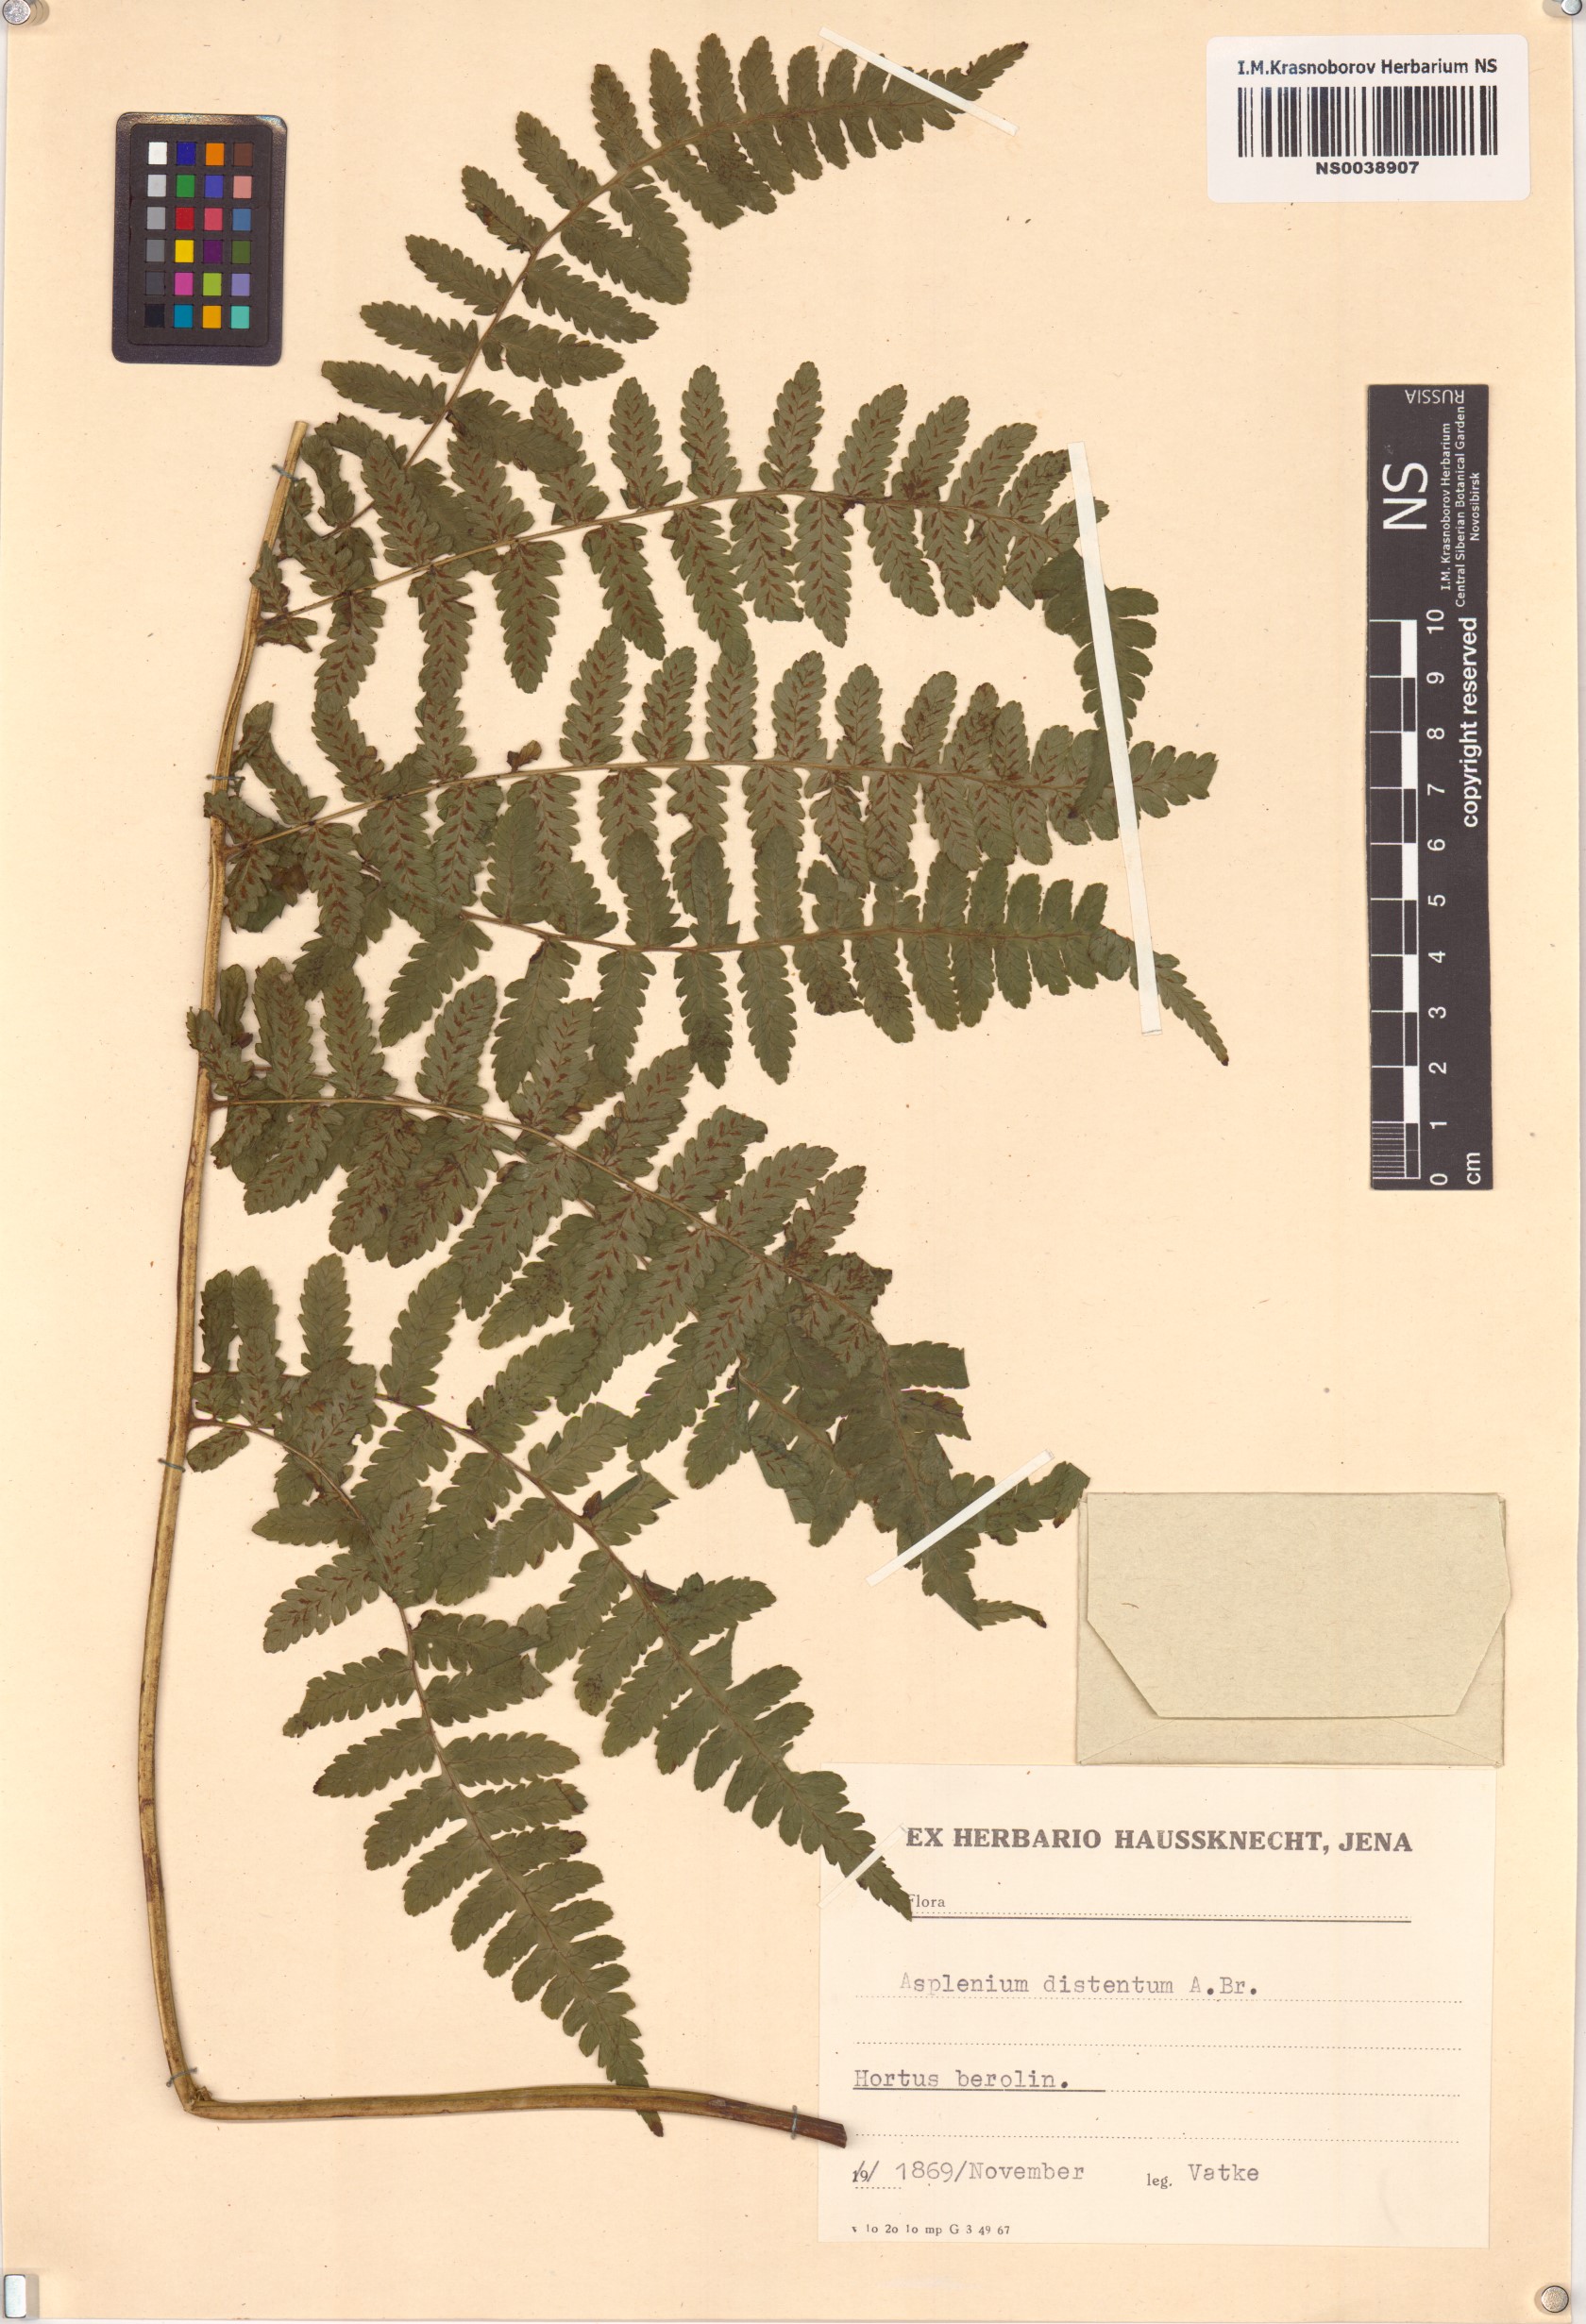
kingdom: Plantae
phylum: Tracheophyta
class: Polypodiopsida
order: Polypodiales
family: Athyriaceae
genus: Diplazium
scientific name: Diplazium expansum
